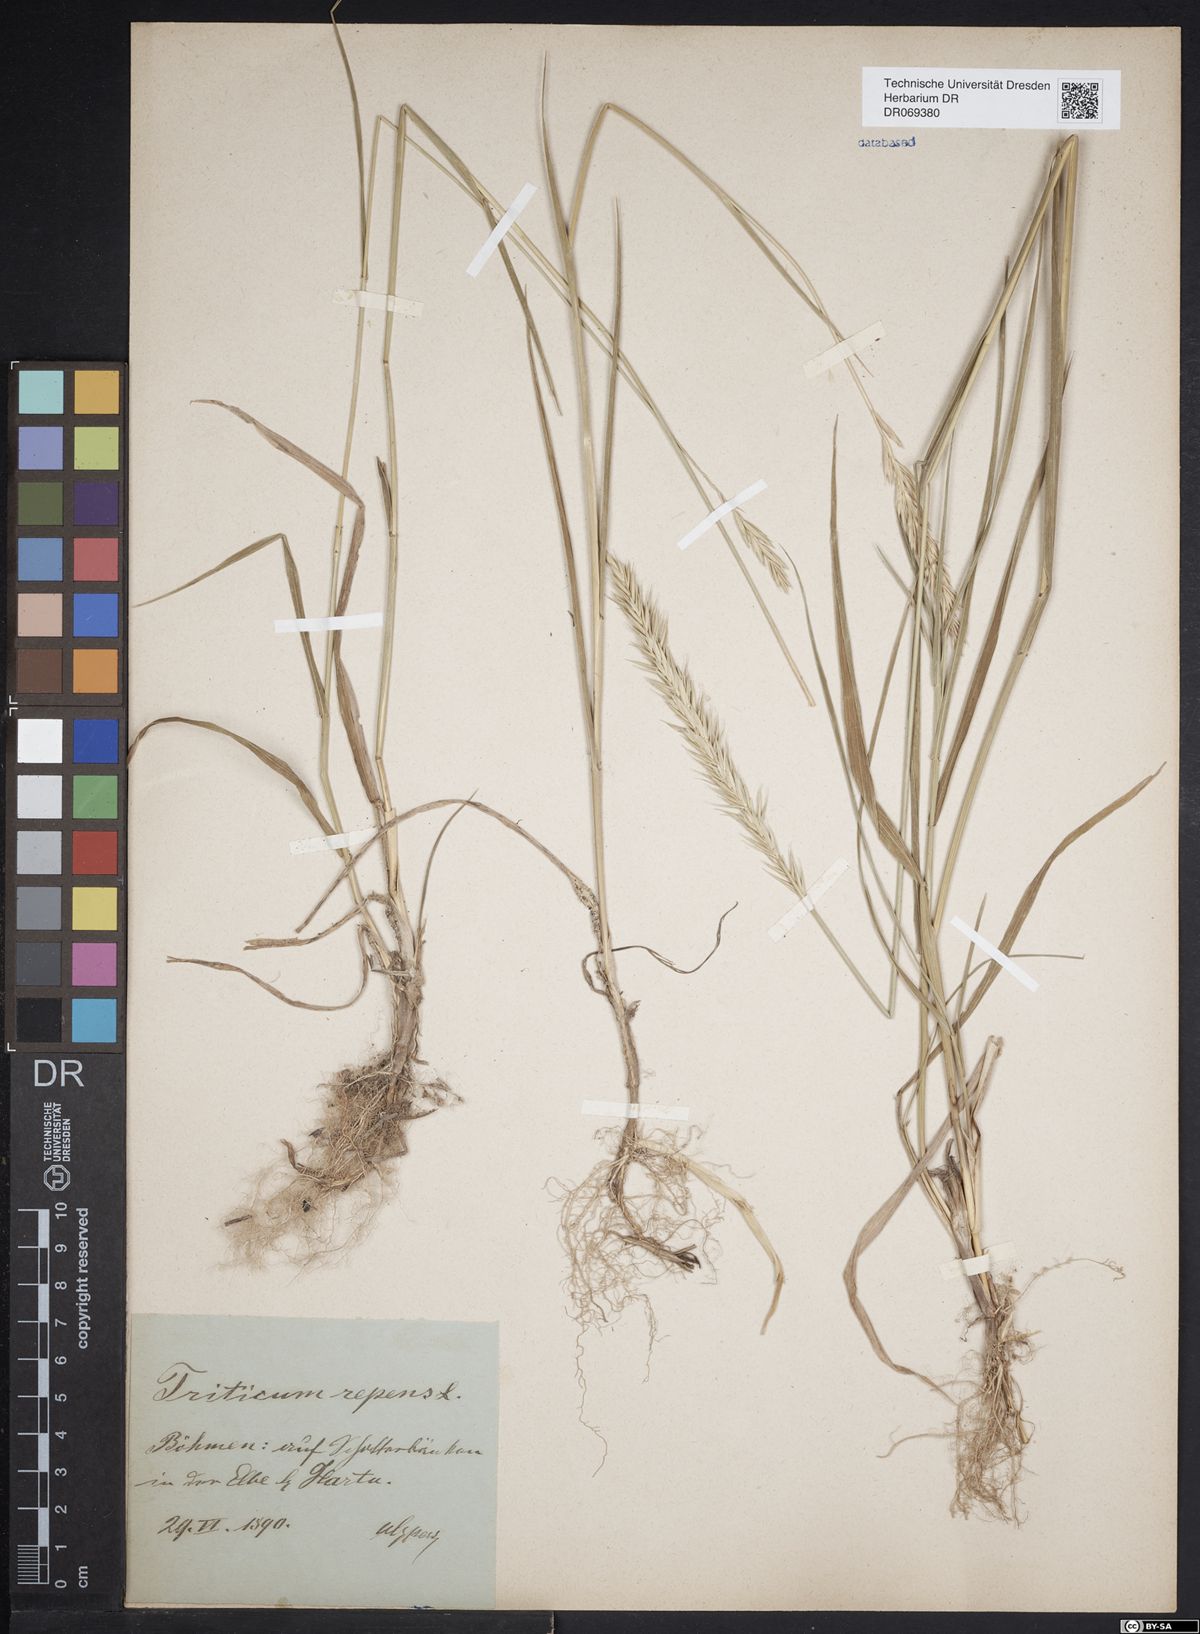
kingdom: Plantae
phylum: Tracheophyta
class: Liliopsida
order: Poales
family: Poaceae
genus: Elymus
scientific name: Elymus repens
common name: Quackgrass
